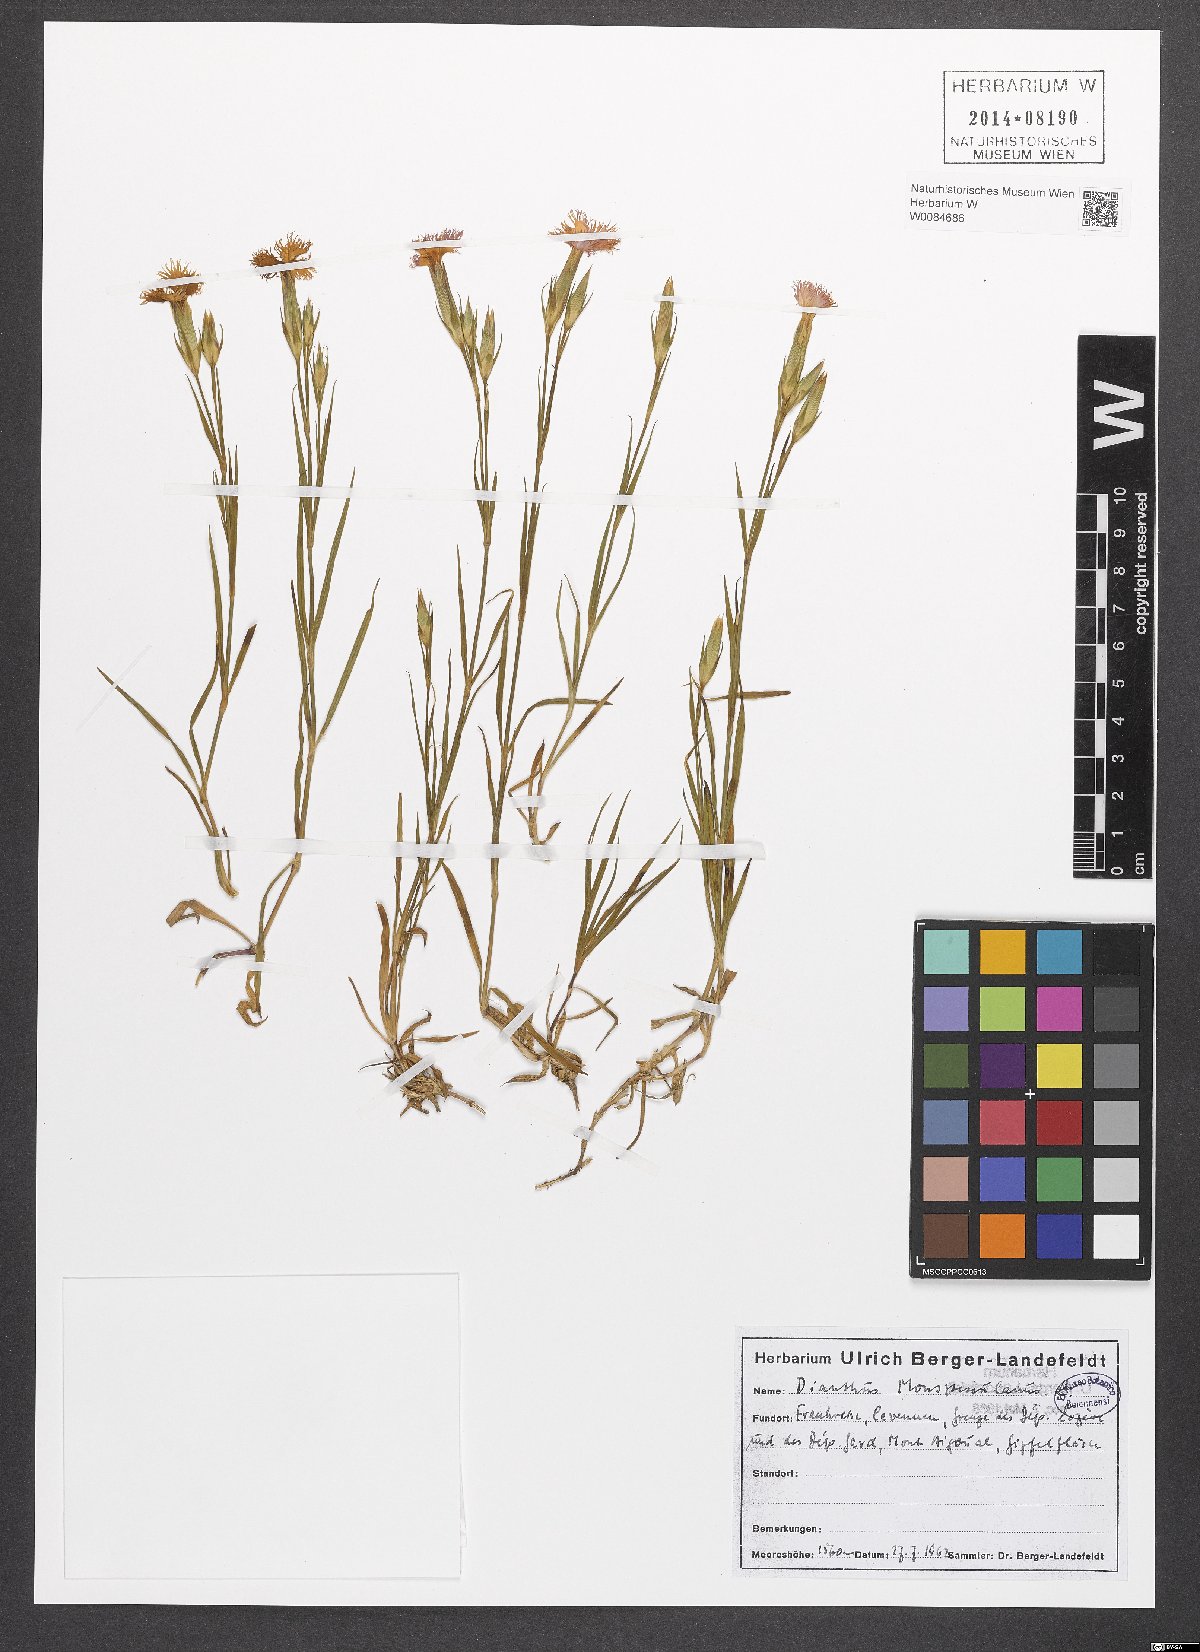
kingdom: Plantae
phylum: Tracheophyta
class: Magnoliopsida
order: Caryophyllales
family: Caryophyllaceae
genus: Dianthus
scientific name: Dianthus hyssopifolius
